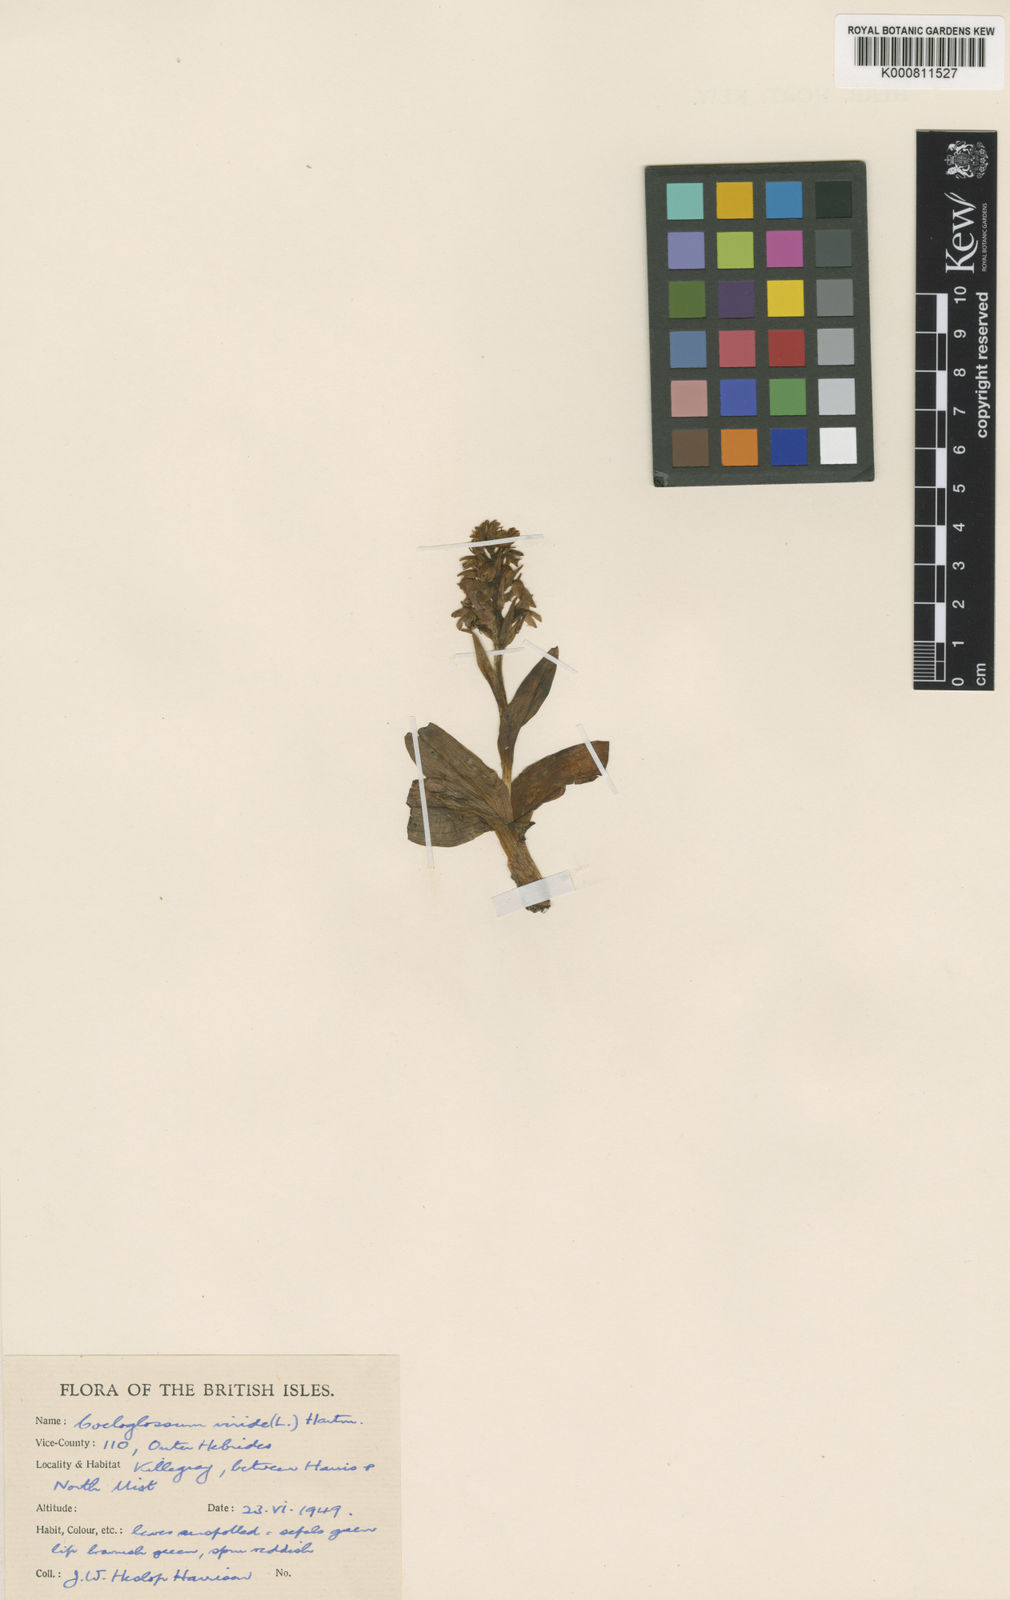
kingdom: Plantae
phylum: Tracheophyta
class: Liliopsida
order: Asparagales
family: Orchidaceae
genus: Dactylorhiza
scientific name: Dactylorhiza viridis
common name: Longbract frog orchid
